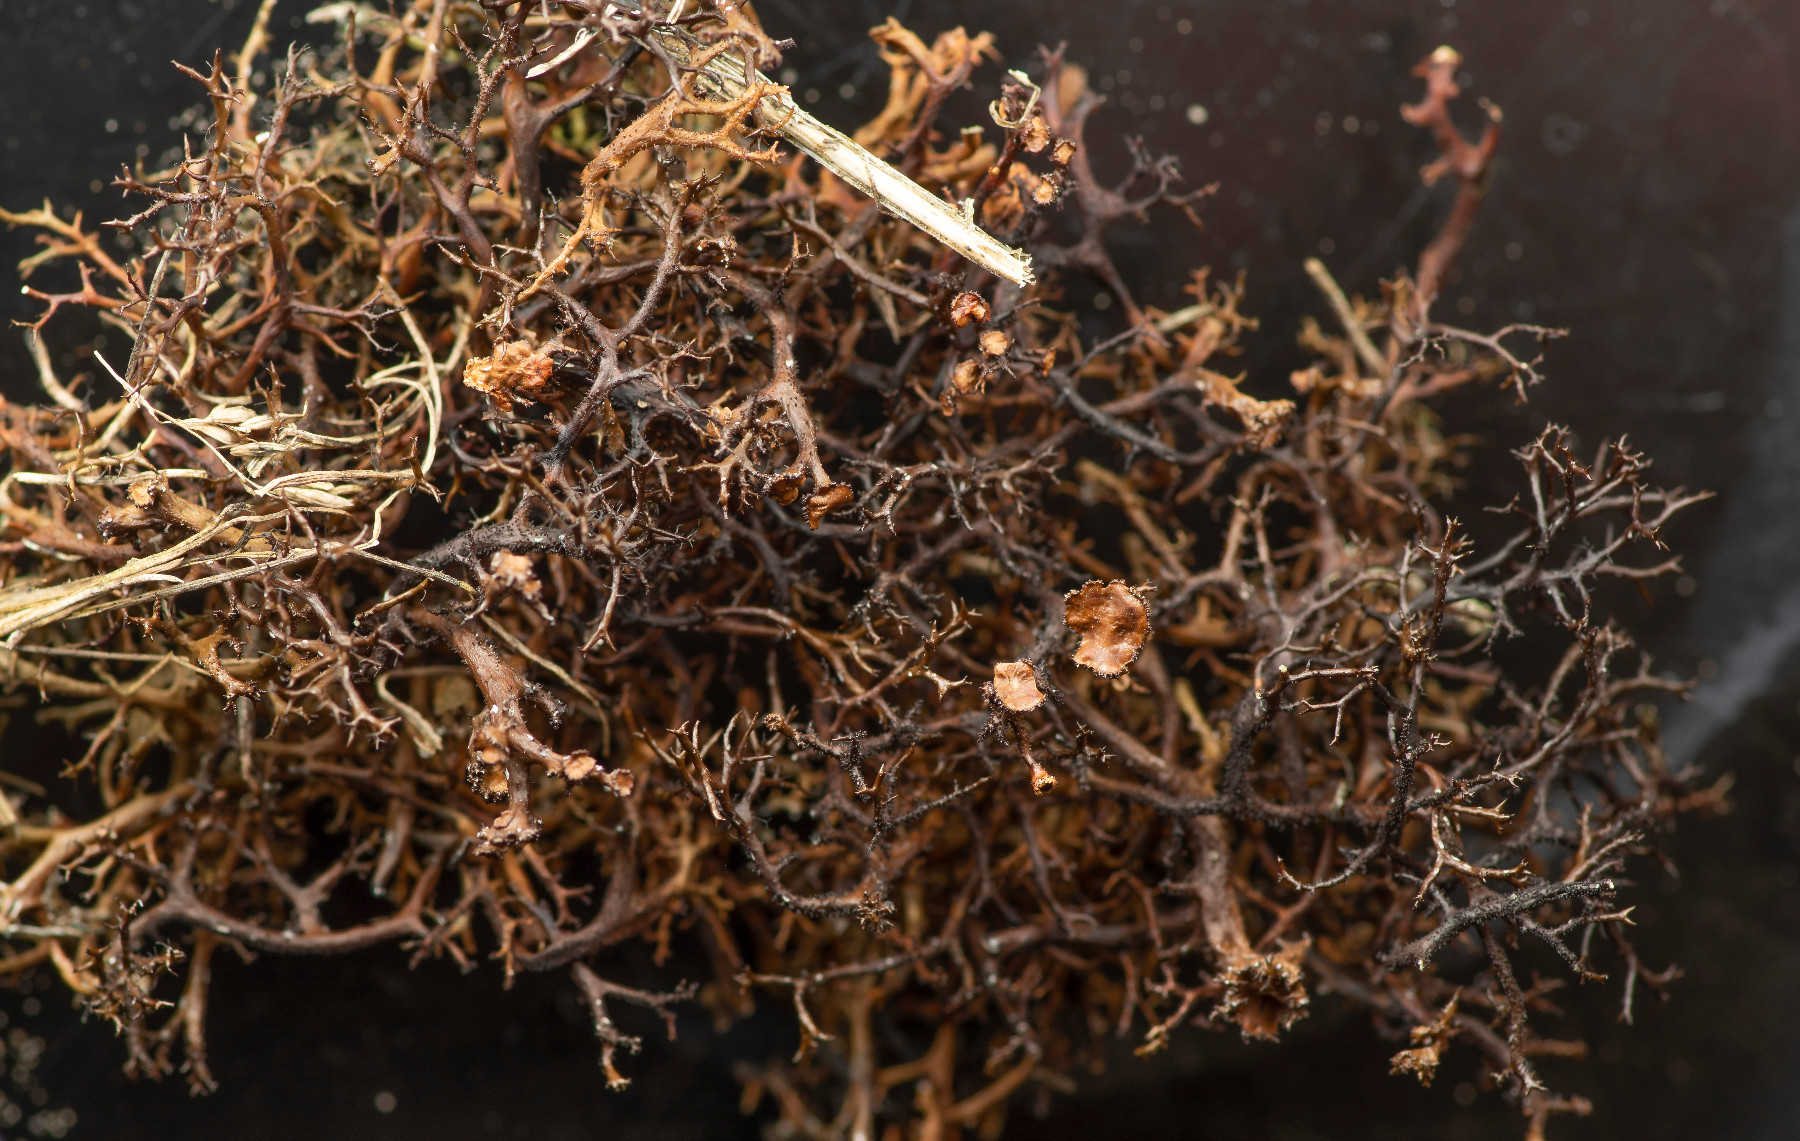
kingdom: Fungi
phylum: Ascomycota
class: Lecanoromycetes
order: Lecanorales
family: Parmeliaceae
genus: Cetraria
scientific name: Cetraria aculeata
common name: grubet tjørnelav
